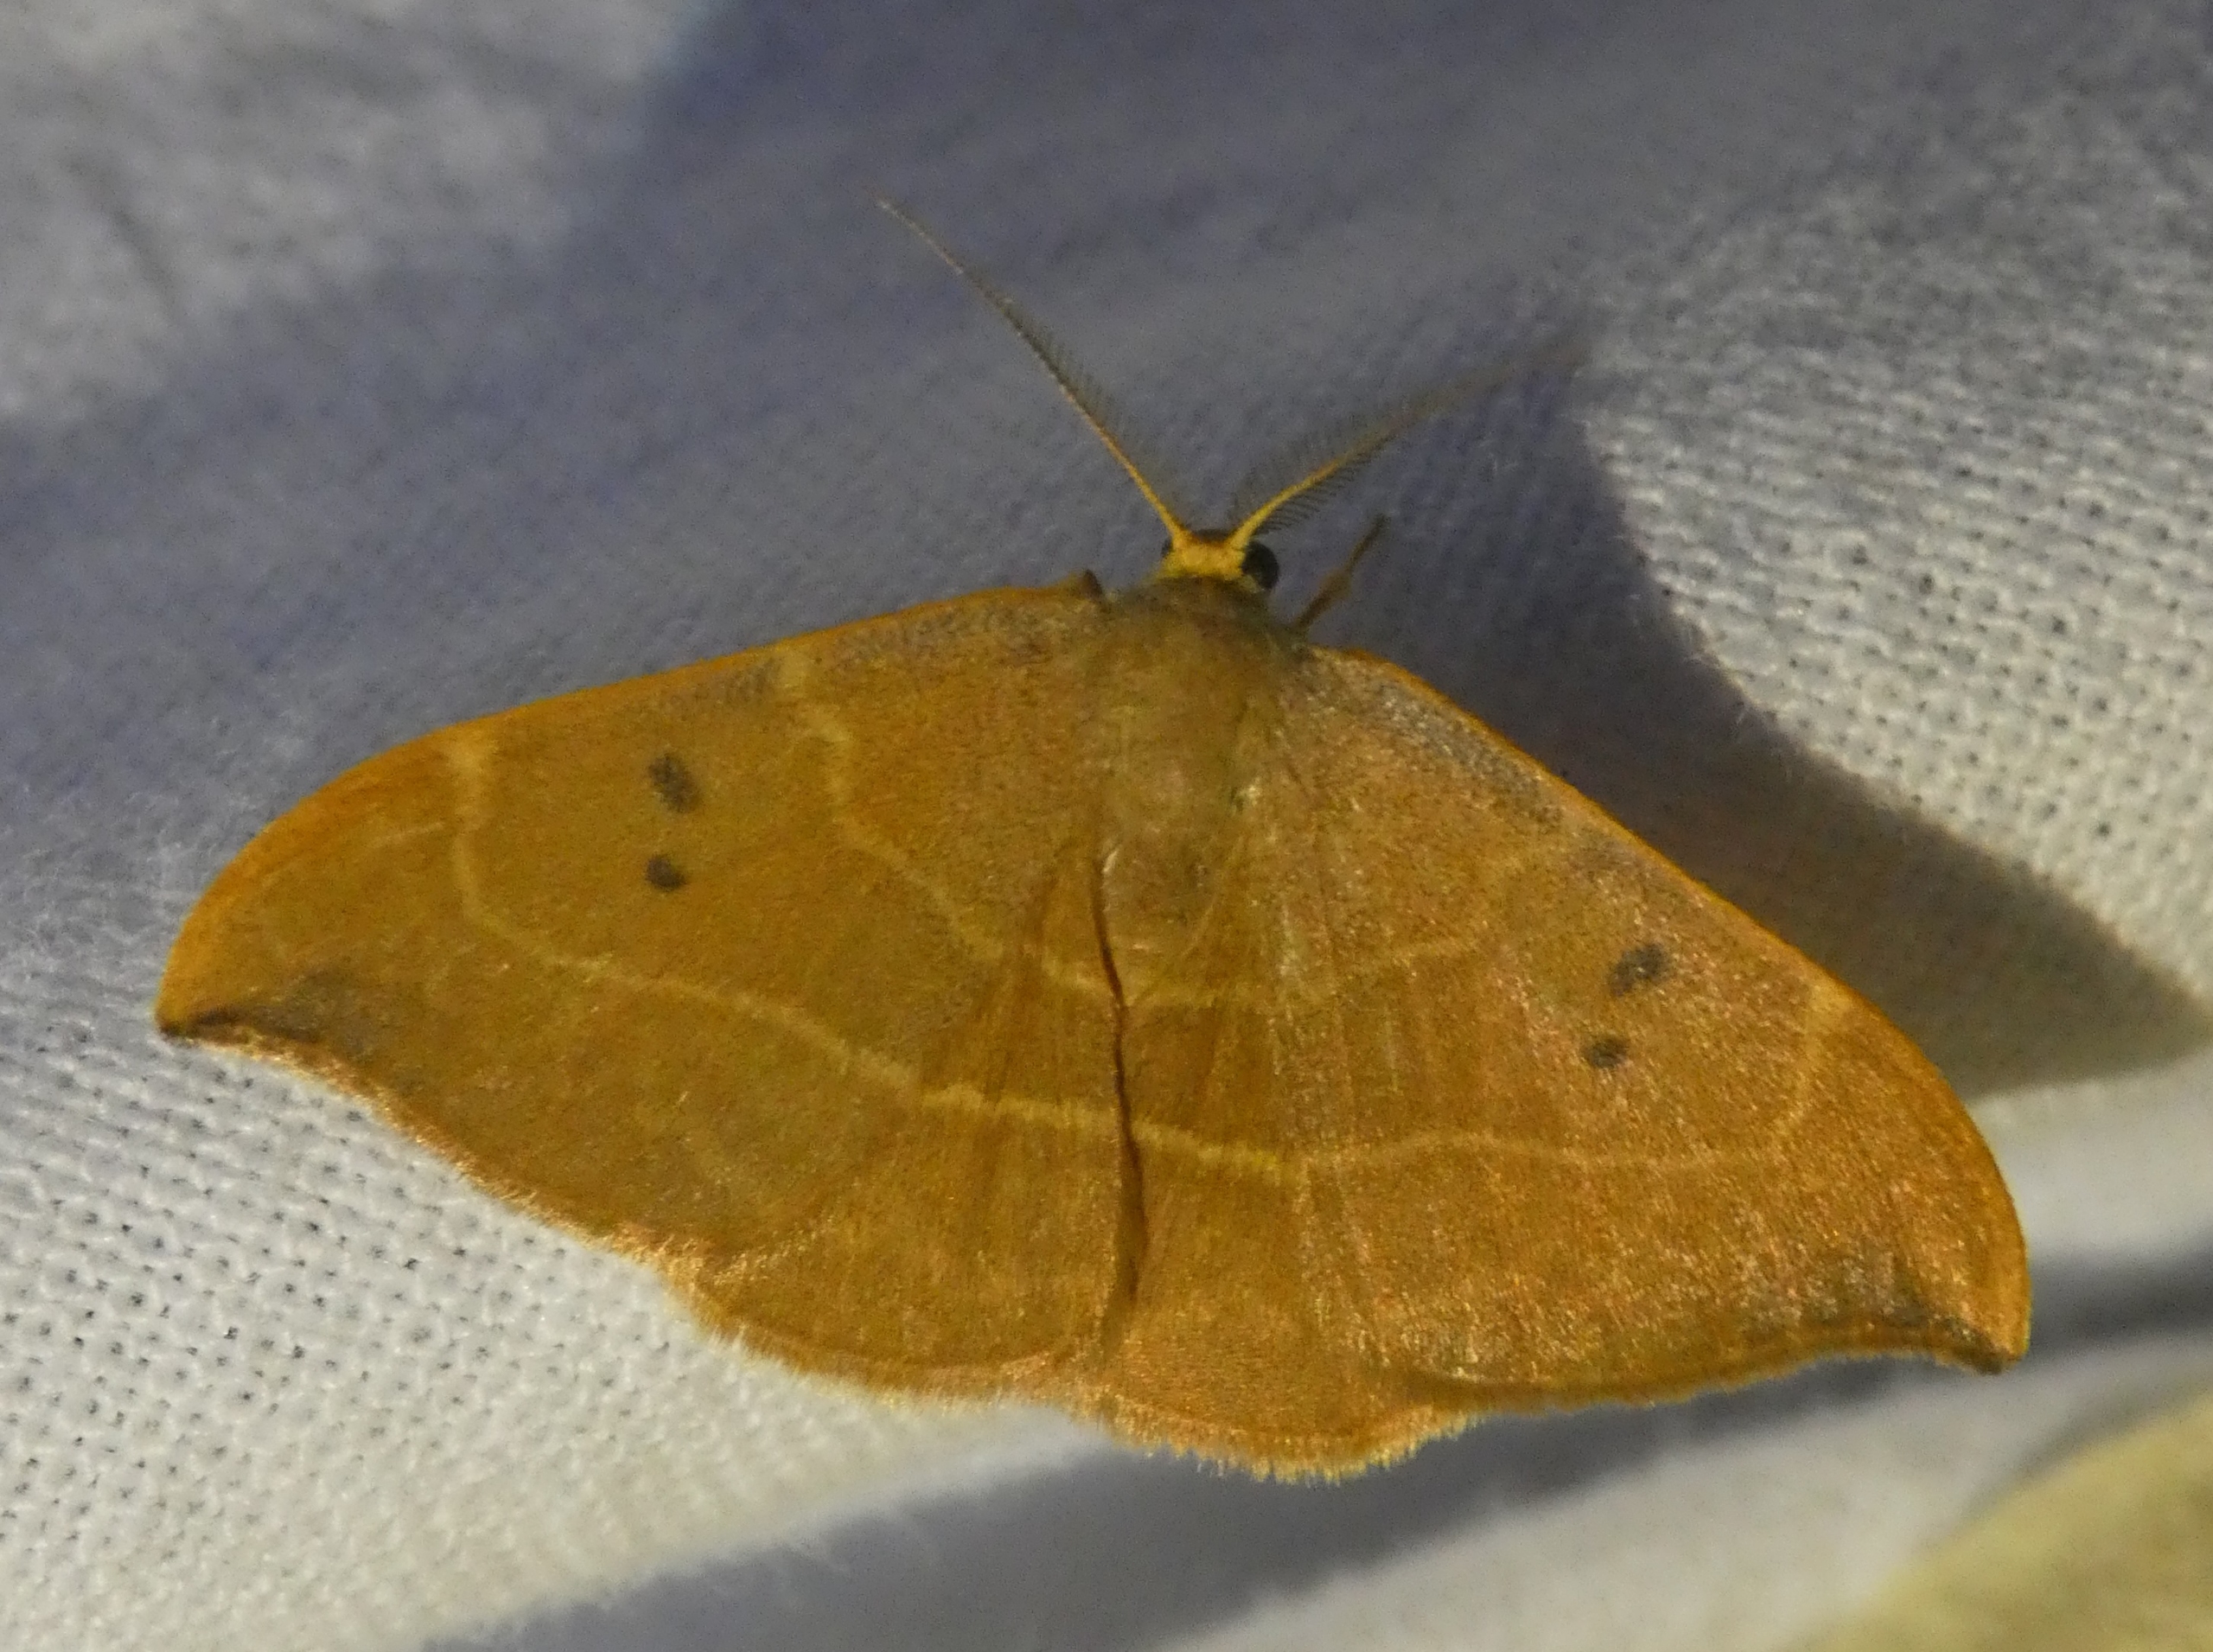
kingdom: Animalia
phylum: Arthropoda
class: Insecta
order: Lepidoptera
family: Drepanidae
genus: Watsonalla
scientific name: Watsonalla binaria
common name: Toplettet seglvinge
